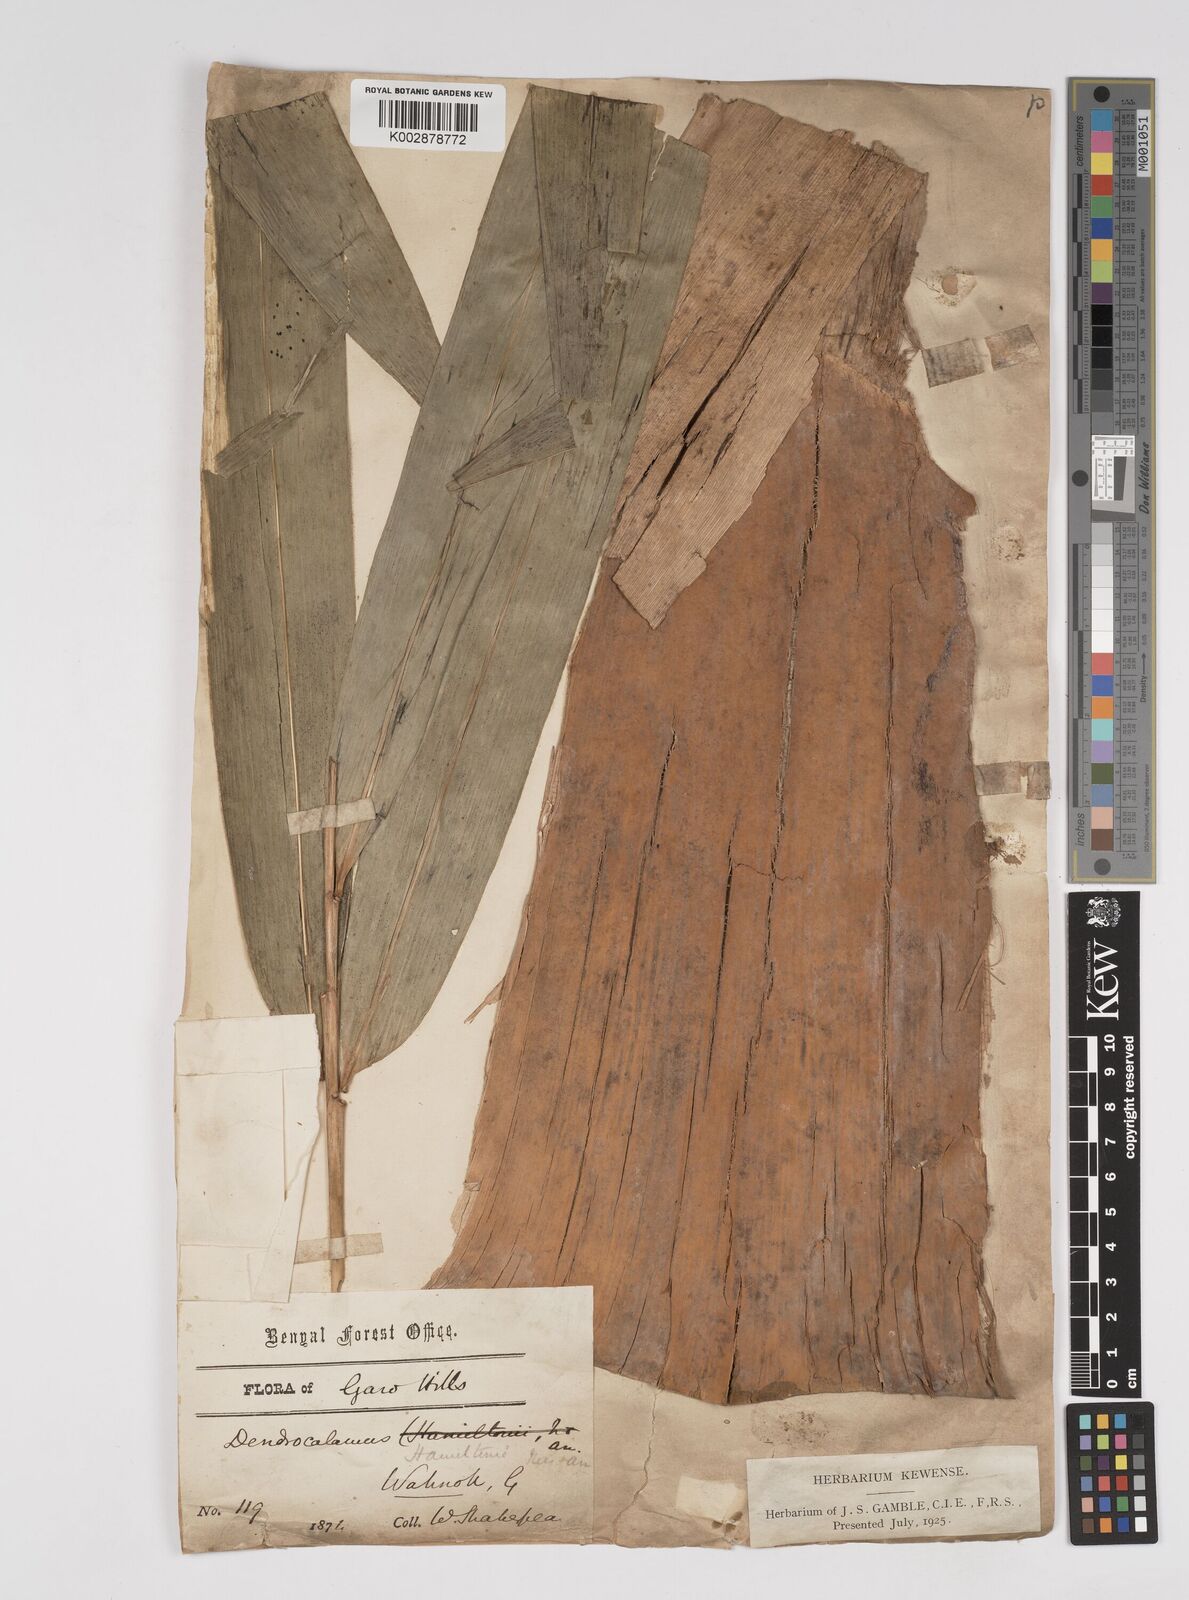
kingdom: Plantae
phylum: Tracheophyta
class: Liliopsida
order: Poales
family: Poaceae
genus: Dendrocalamus
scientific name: Dendrocalamus hamiltonii
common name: Tama bamboo
